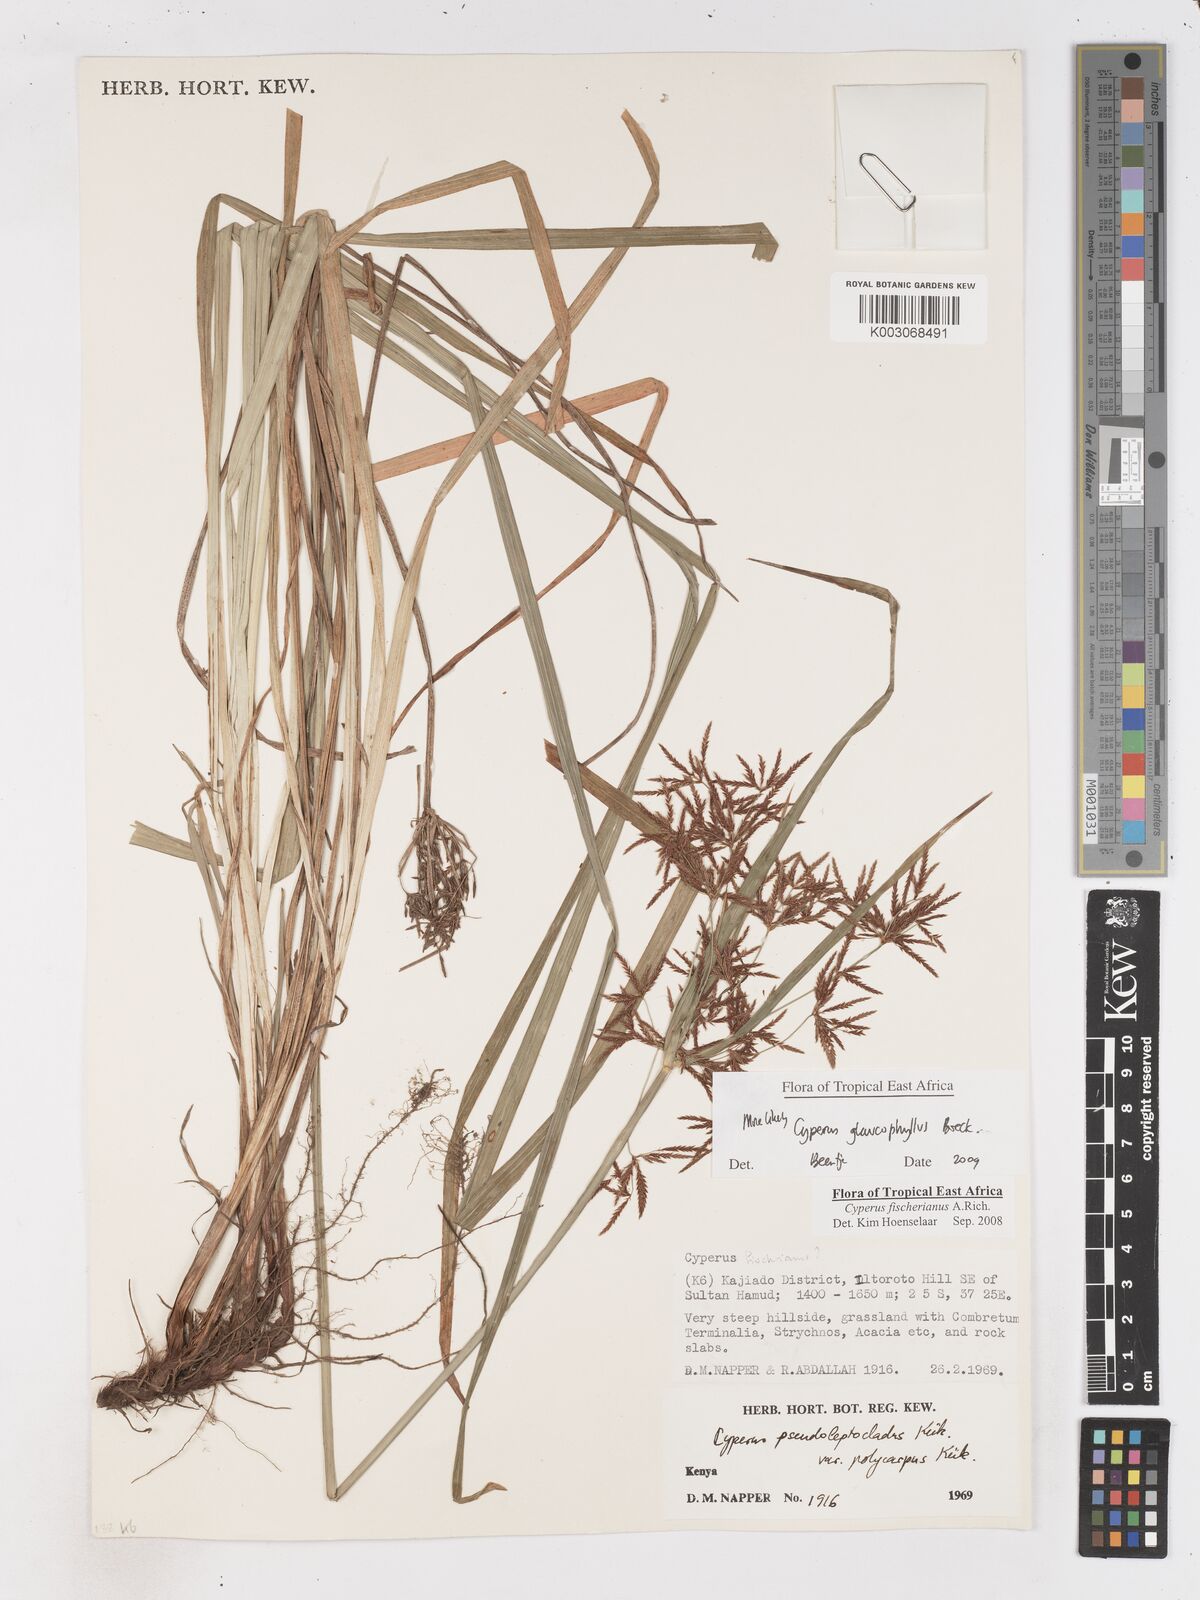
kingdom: Plantae
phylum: Tracheophyta
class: Liliopsida
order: Poales
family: Cyperaceae
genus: Cyperus
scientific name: Cyperus glaucophyllus
